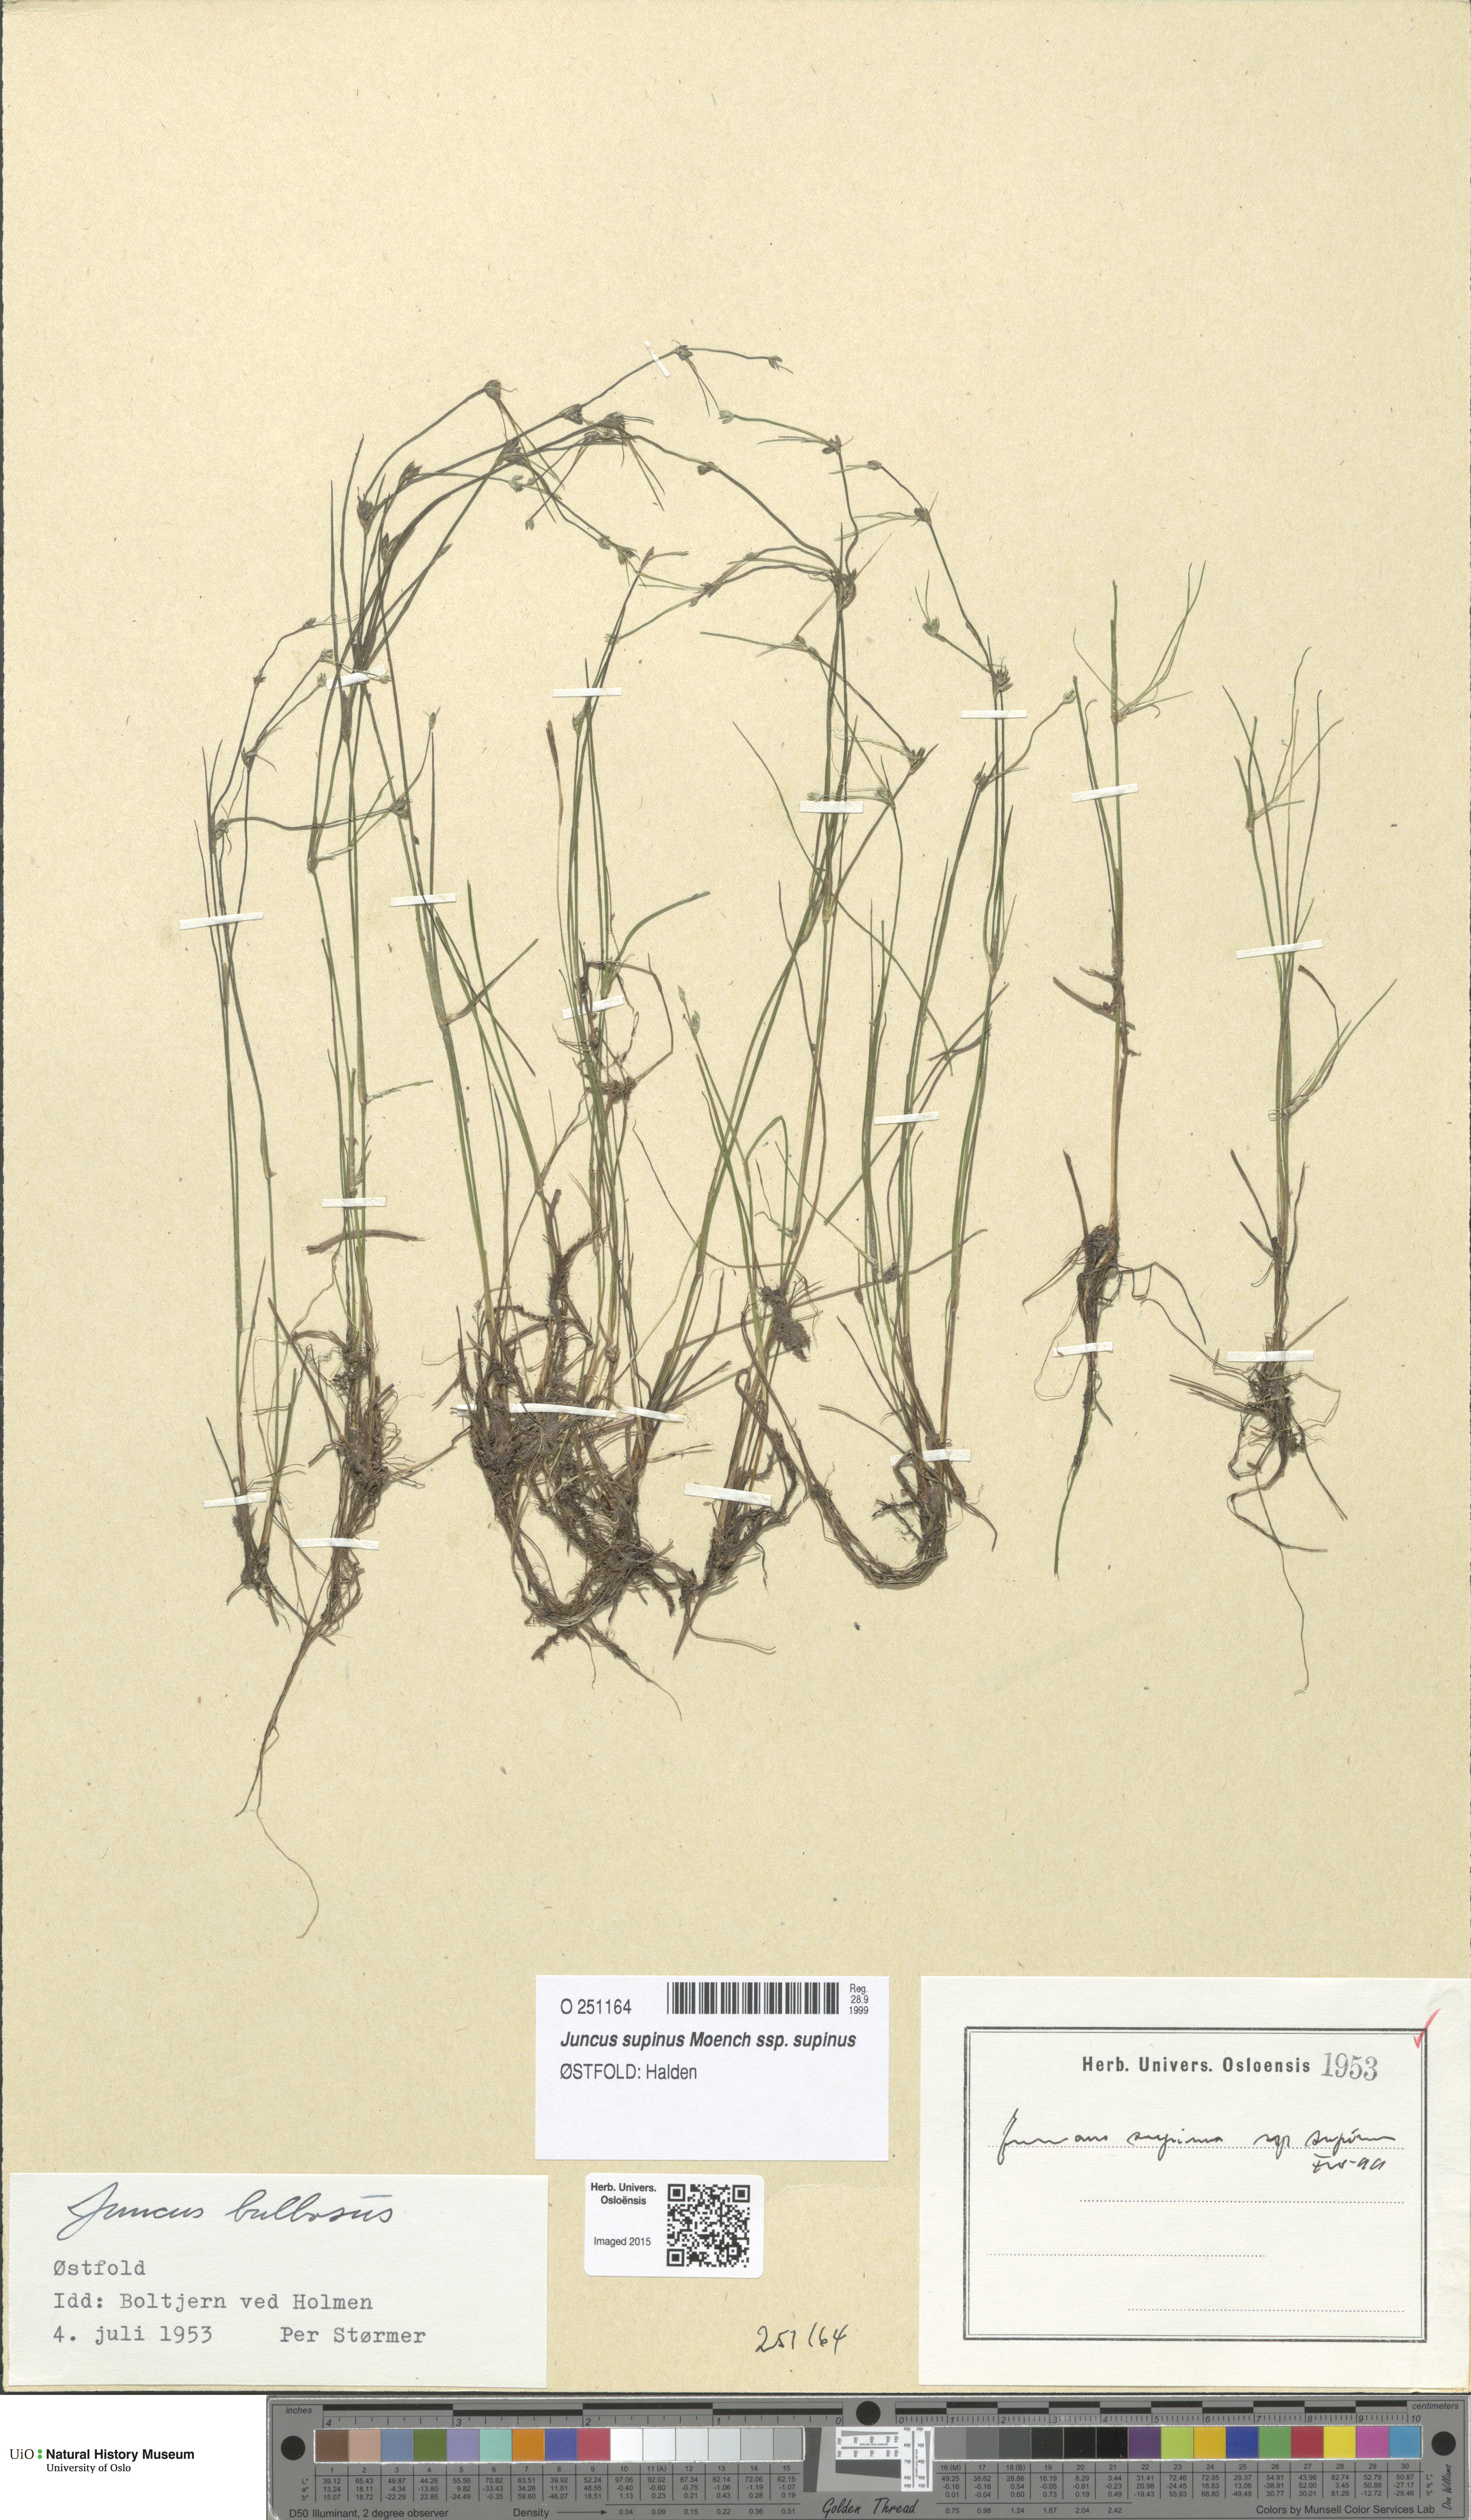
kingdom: Plantae
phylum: Tracheophyta
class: Liliopsida
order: Poales
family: Juncaceae
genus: Juncus
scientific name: Juncus bulbosus
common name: Bulbous rush
